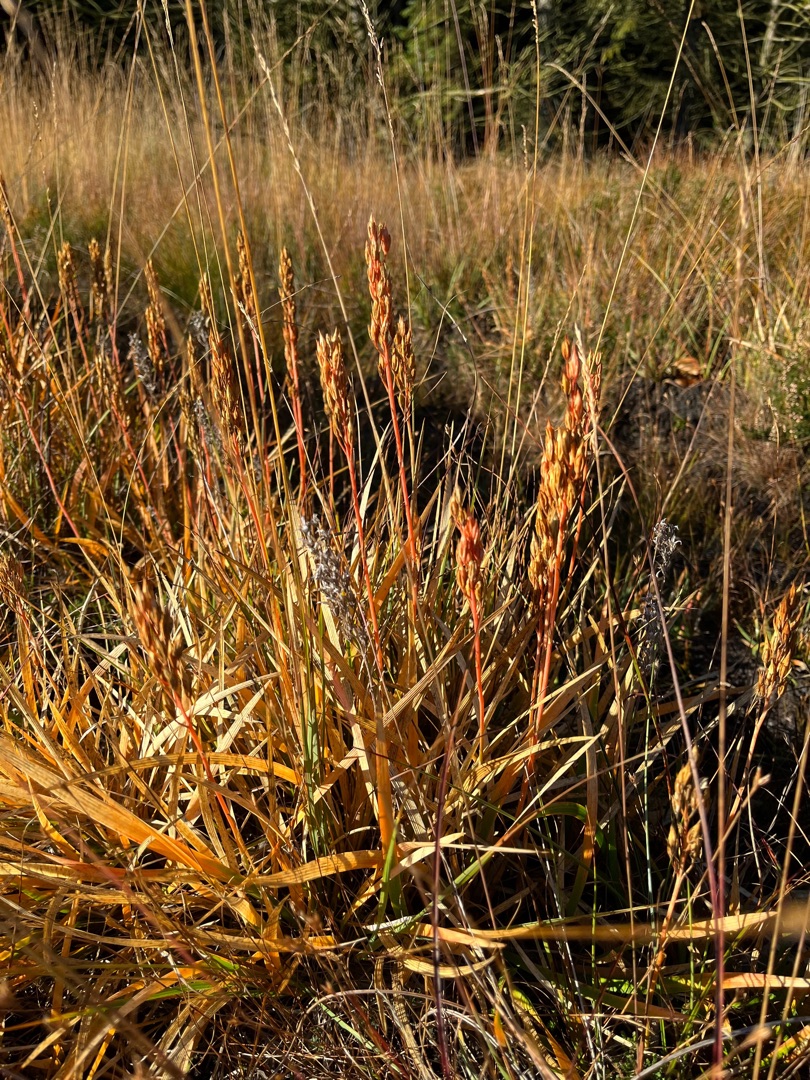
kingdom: Plantae
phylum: Tracheophyta
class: Liliopsida
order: Dioscoreales
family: Nartheciaceae
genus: Narthecium
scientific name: Narthecium ossifragum
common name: Benbræk
